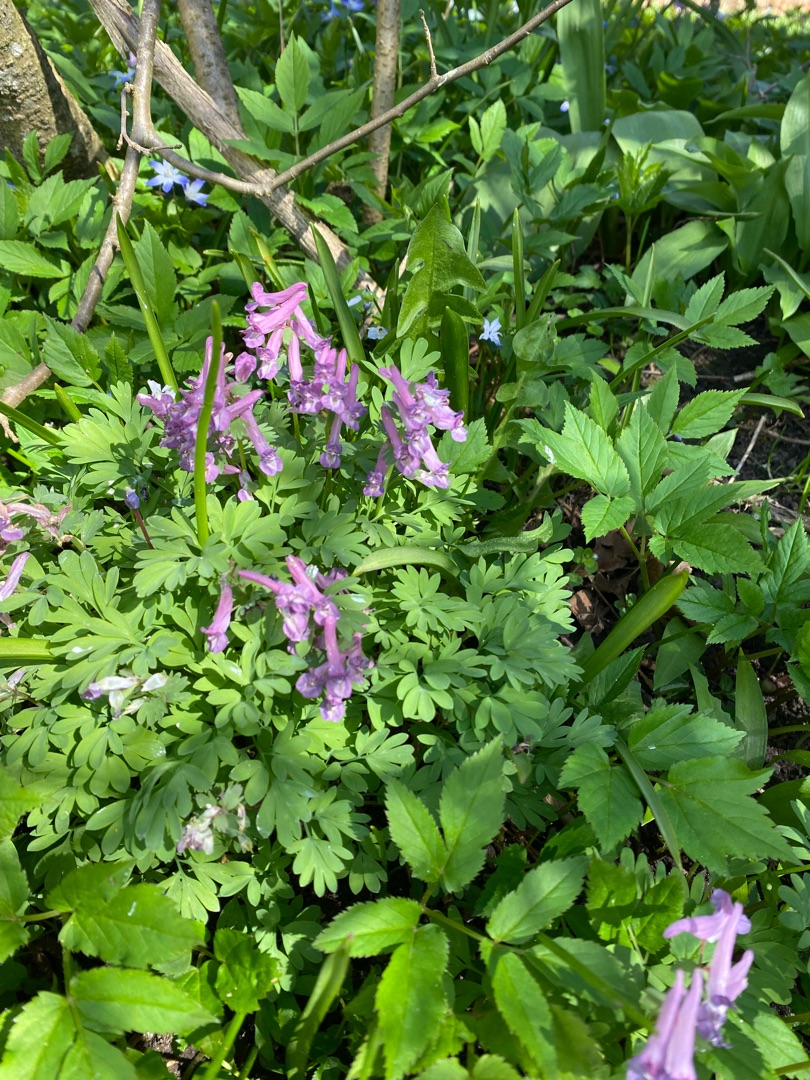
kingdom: Plantae
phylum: Tracheophyta
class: Magnoliopsida
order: Ranunculales
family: Papaveraceae
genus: Corydalis
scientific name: Corydalis solida
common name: Langstilket lærkespore
